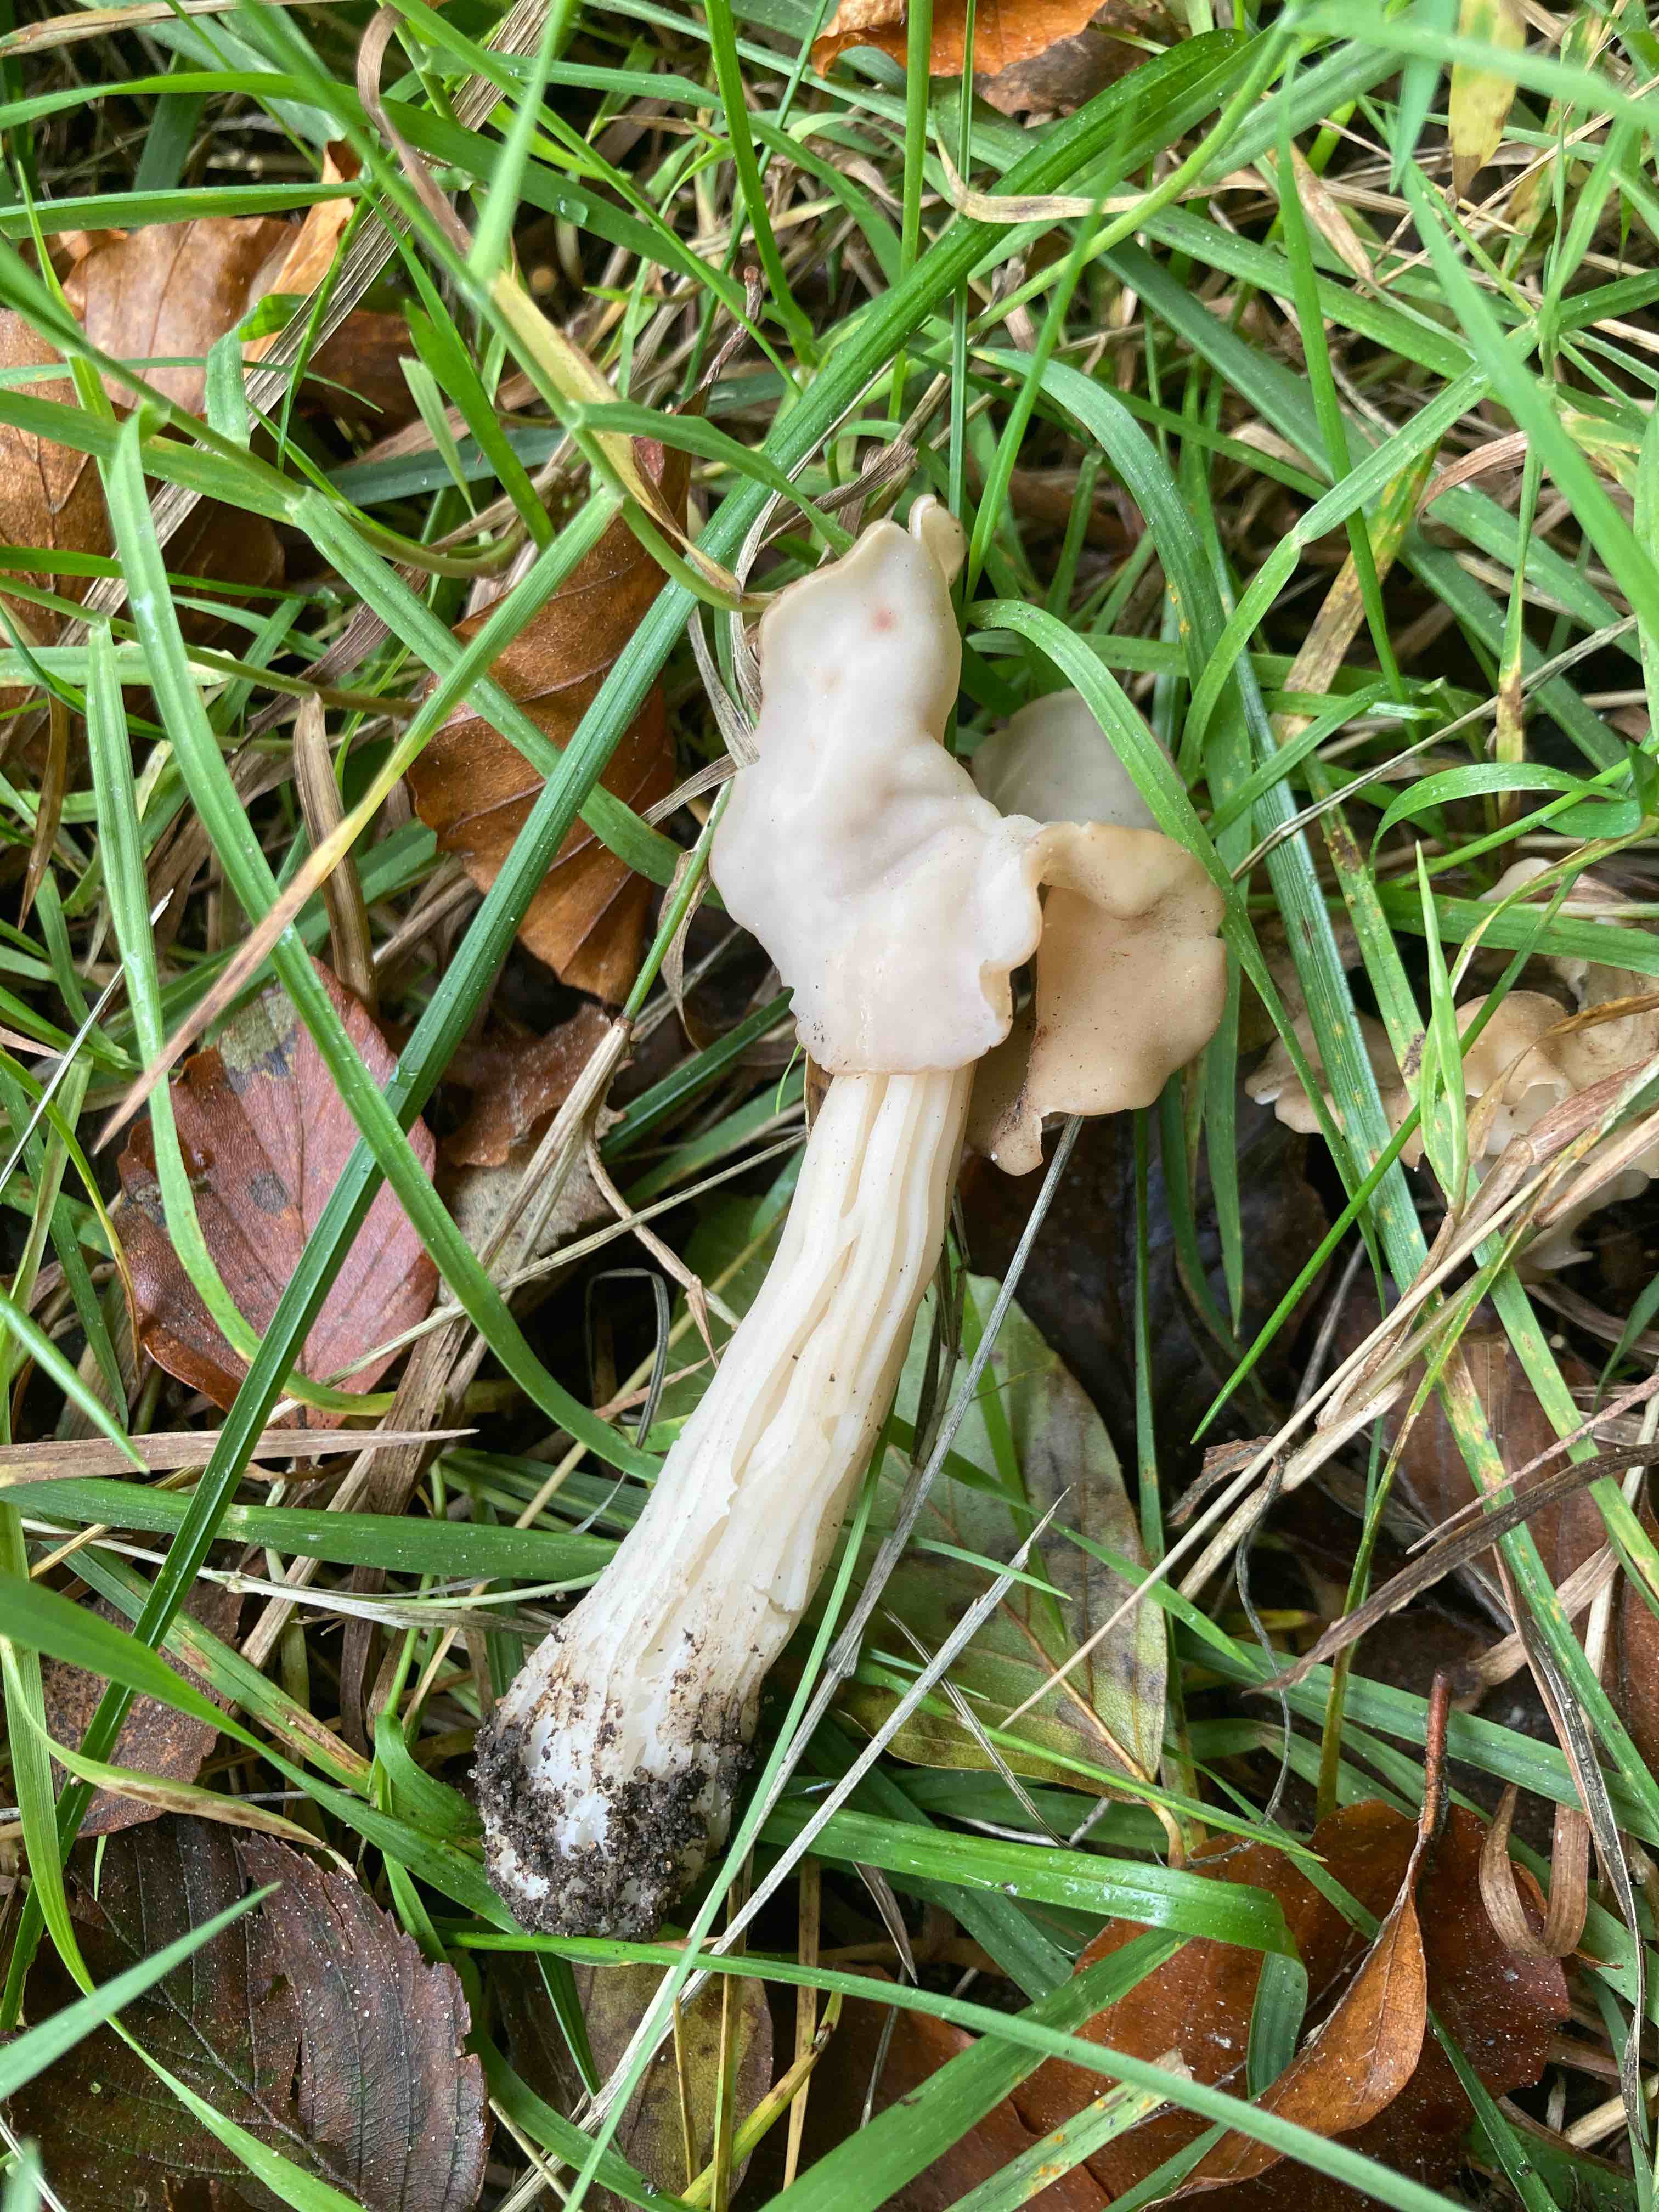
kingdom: Fungi
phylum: Ascomycota
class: Pezizomycetes
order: Pezizales
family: Helvellaceae
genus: Helvella
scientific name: Helvella crispa
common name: kruset foldhat
